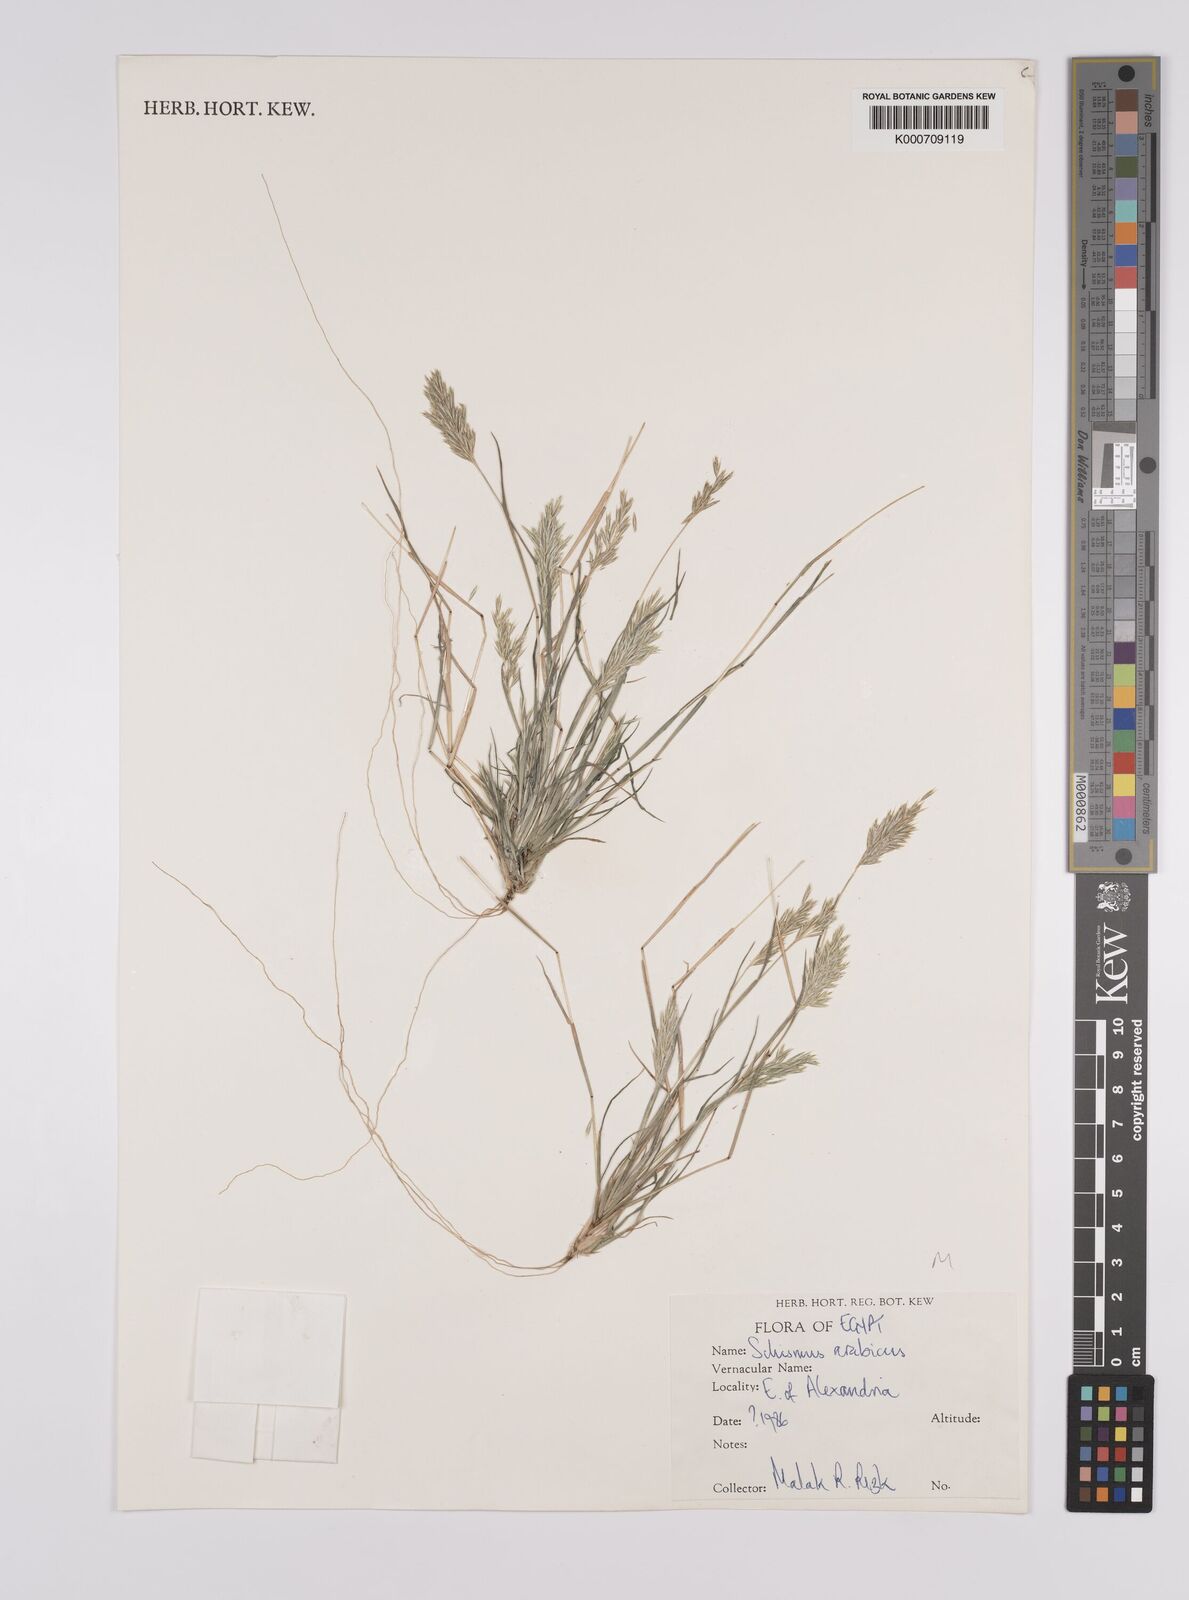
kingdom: Plantae
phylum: Tracheophyta
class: Liliopsida
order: Poales
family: Poaceae
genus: Schismus
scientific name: Schismus arabicus
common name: Arabian schismus
